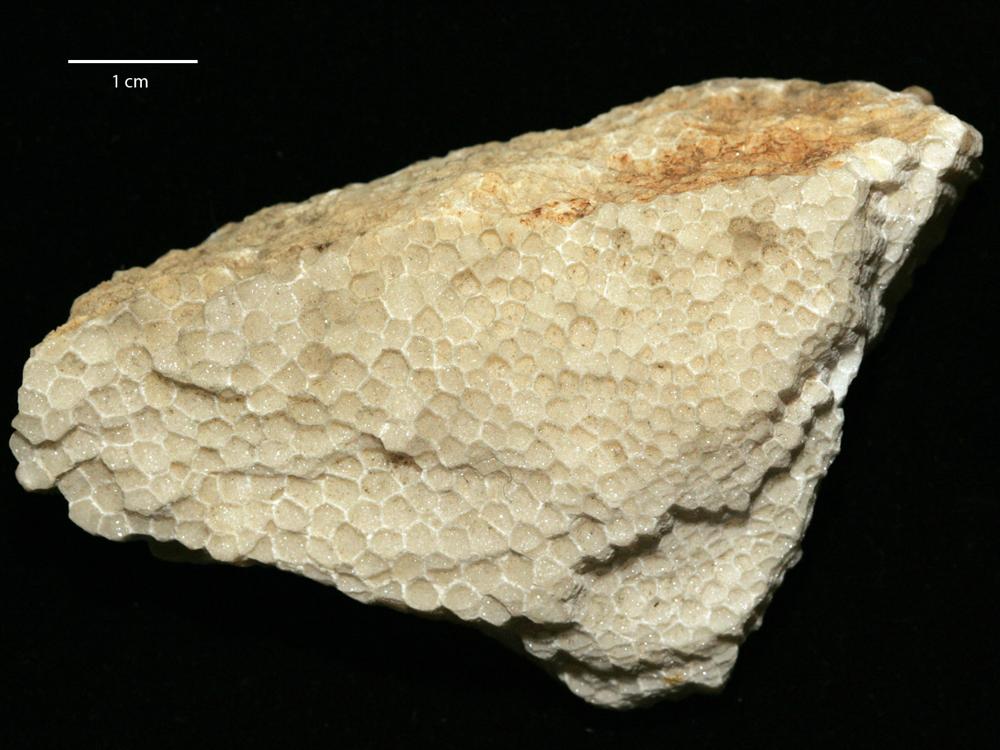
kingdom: Animalia
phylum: Cnidaria
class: Anthozoa
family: Favositidae
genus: Palaeofavosites
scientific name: Palaeofavosites
